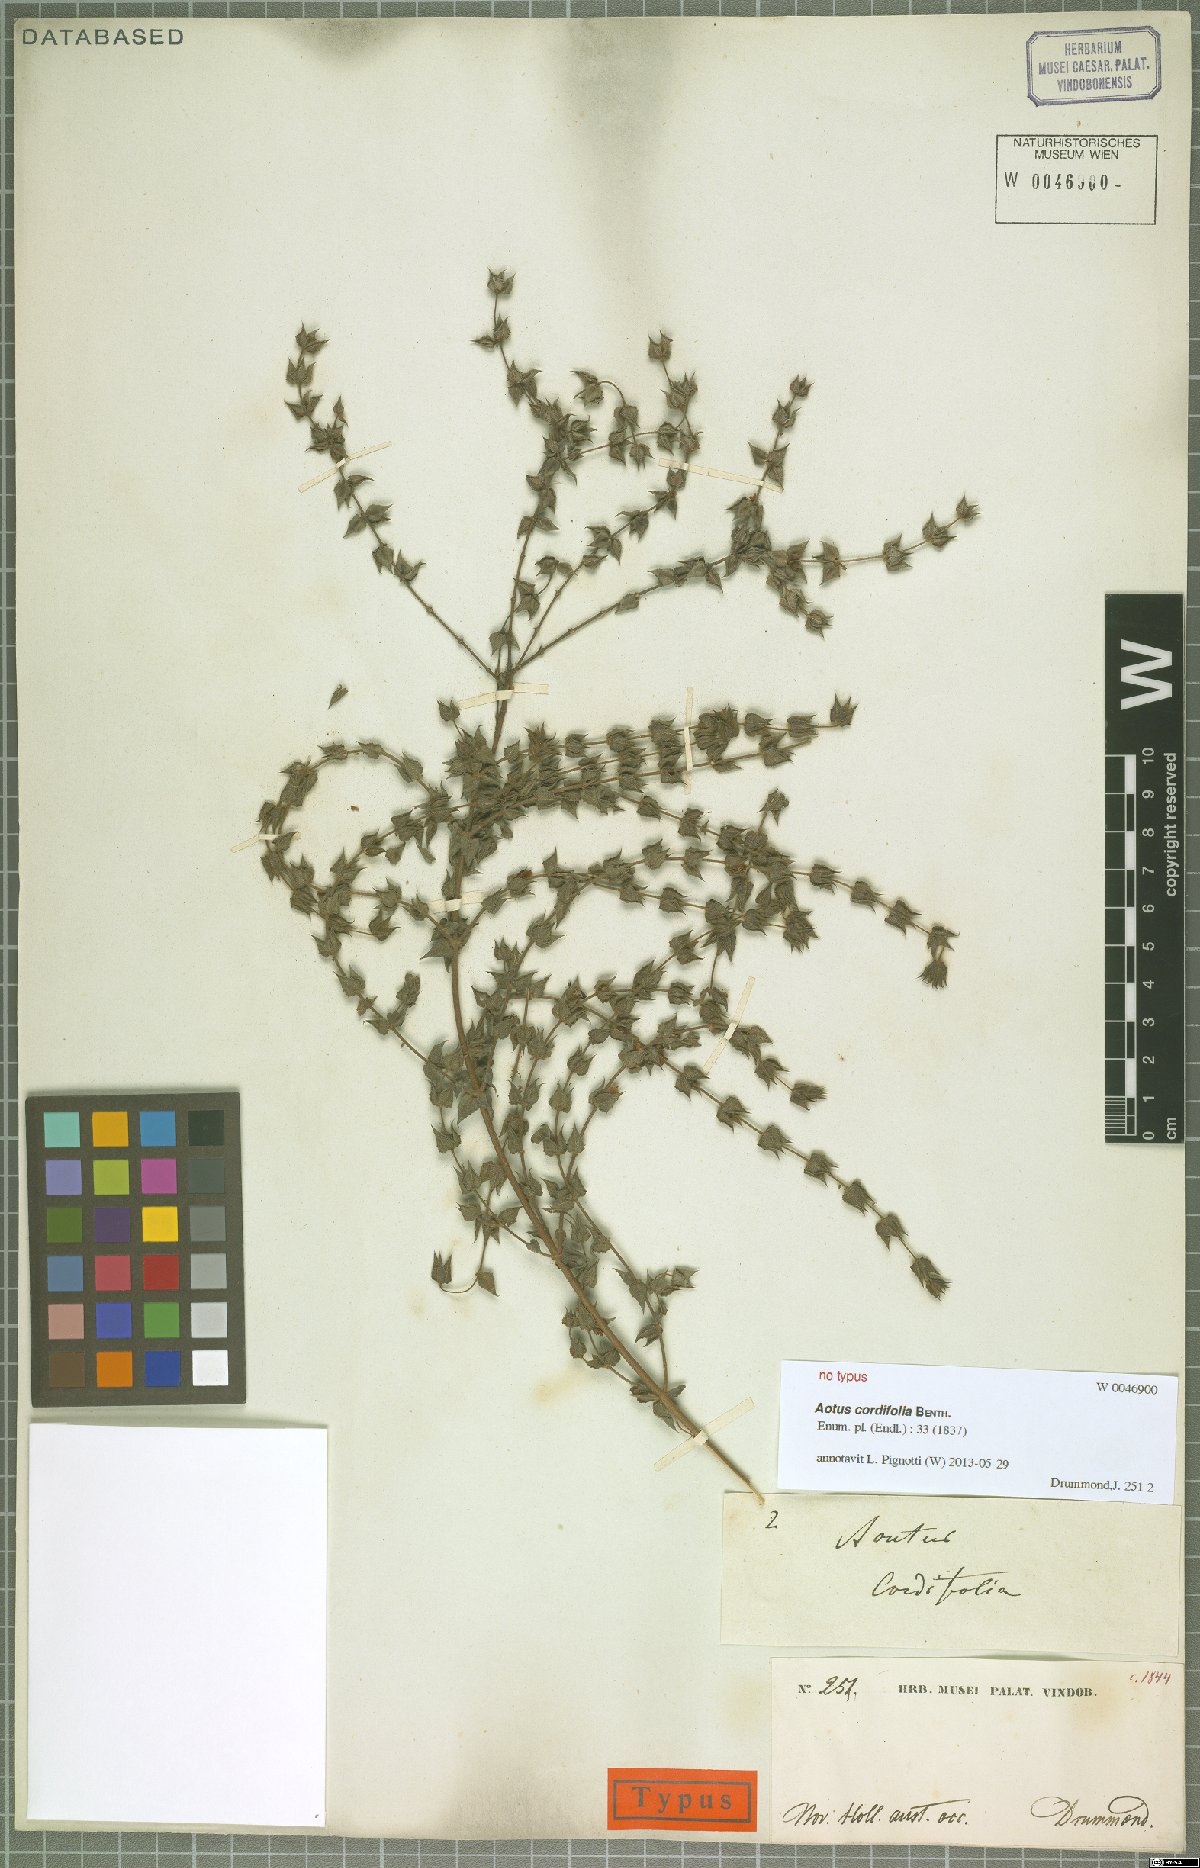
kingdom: Plantae
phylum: Tracheophyta
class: Magnoliopsida
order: Fabales
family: Fabaceae
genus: Aotus
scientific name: Aotus cordifolia
